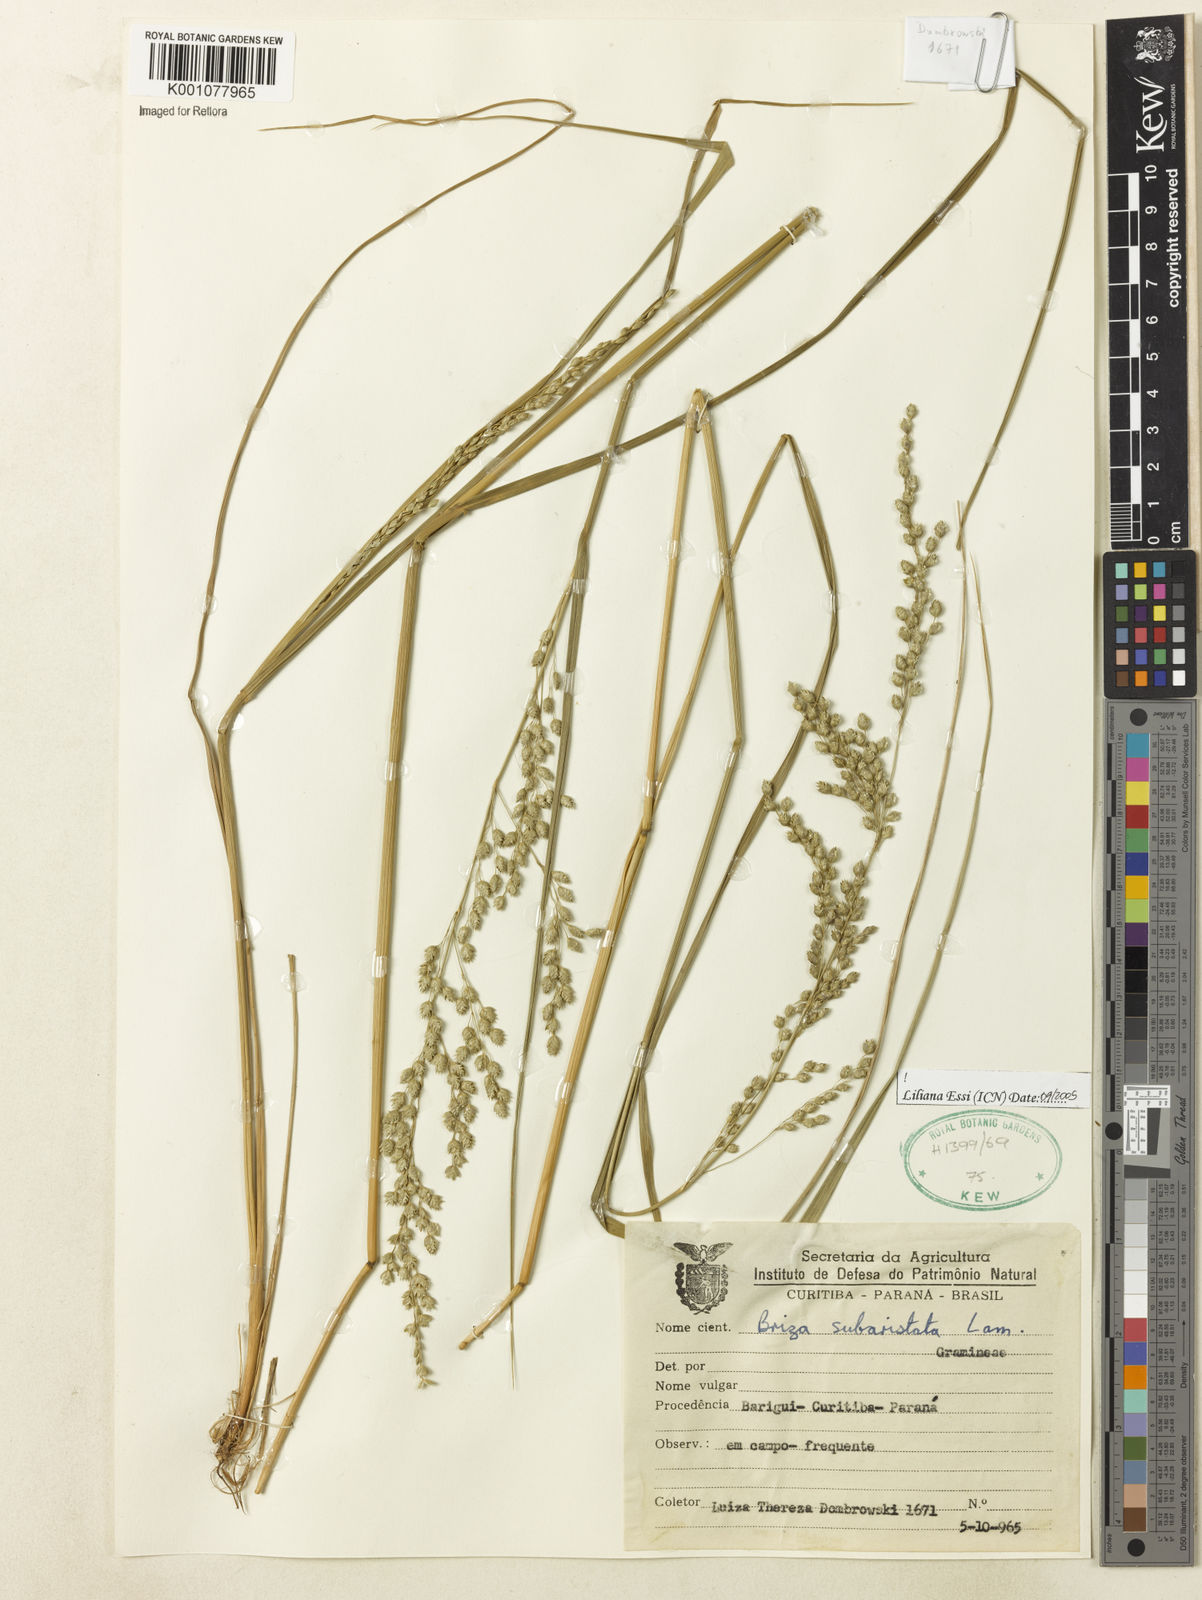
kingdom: Plantae
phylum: Tracheophyta
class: Liliopsida
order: Poales
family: Poaceae
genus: Briza
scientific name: Briza
